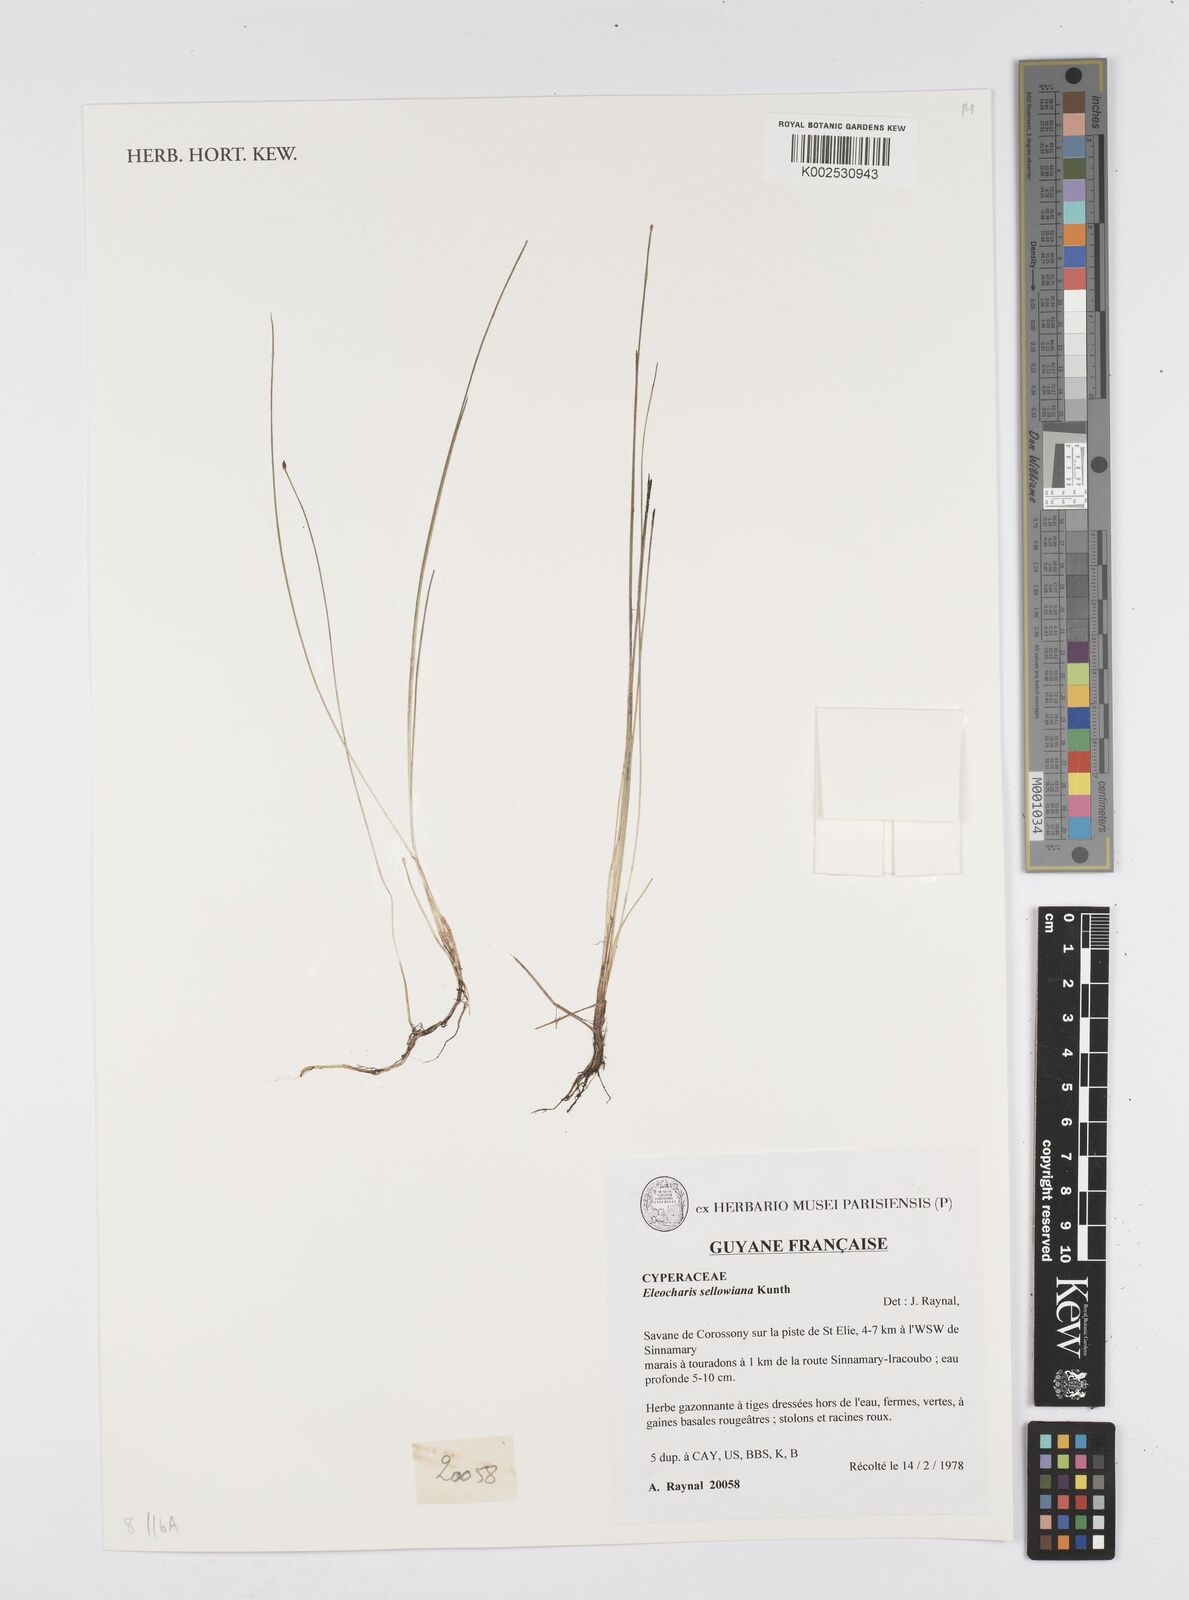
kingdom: Plantae
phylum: Tracheophyta
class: Liliopsida
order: Poales
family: Cyperaceae
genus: Eleocharis
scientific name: Eleocharis sellowiana
